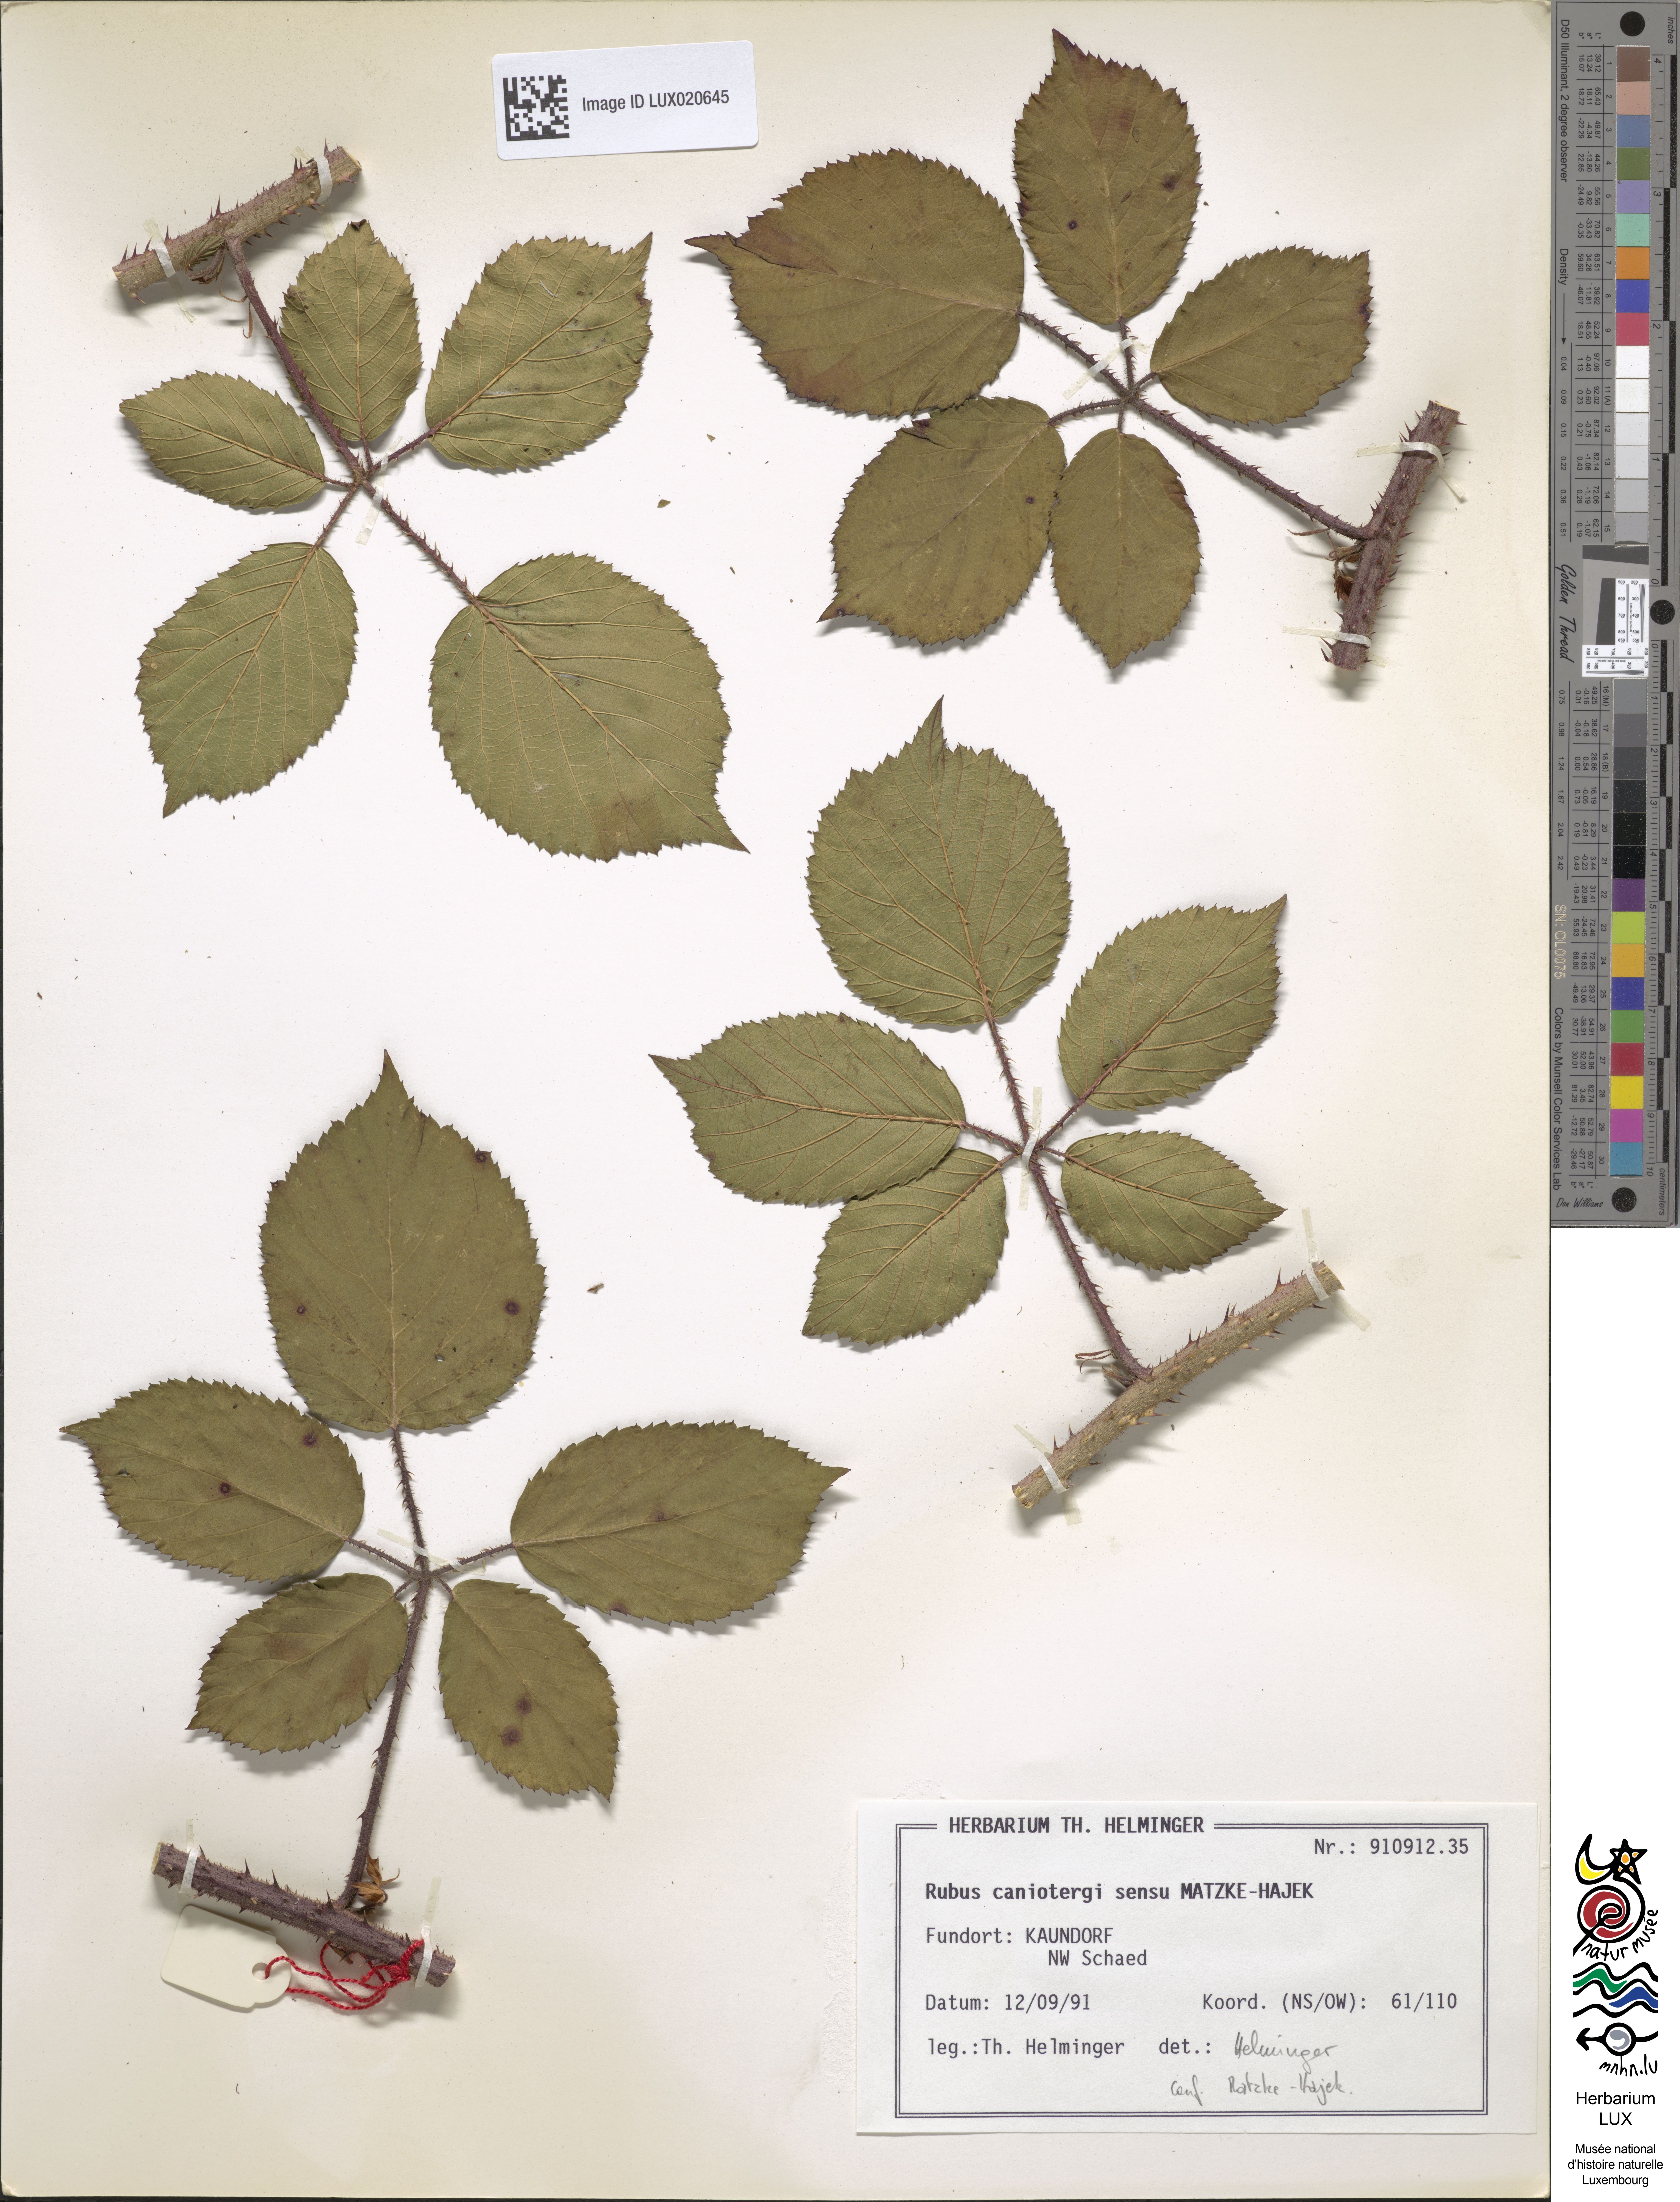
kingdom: Plantae
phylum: Tracheophyta
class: Magnoliopsida
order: Rosales
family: Rosaceae
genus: Rubus
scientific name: Rubus caninitergi
